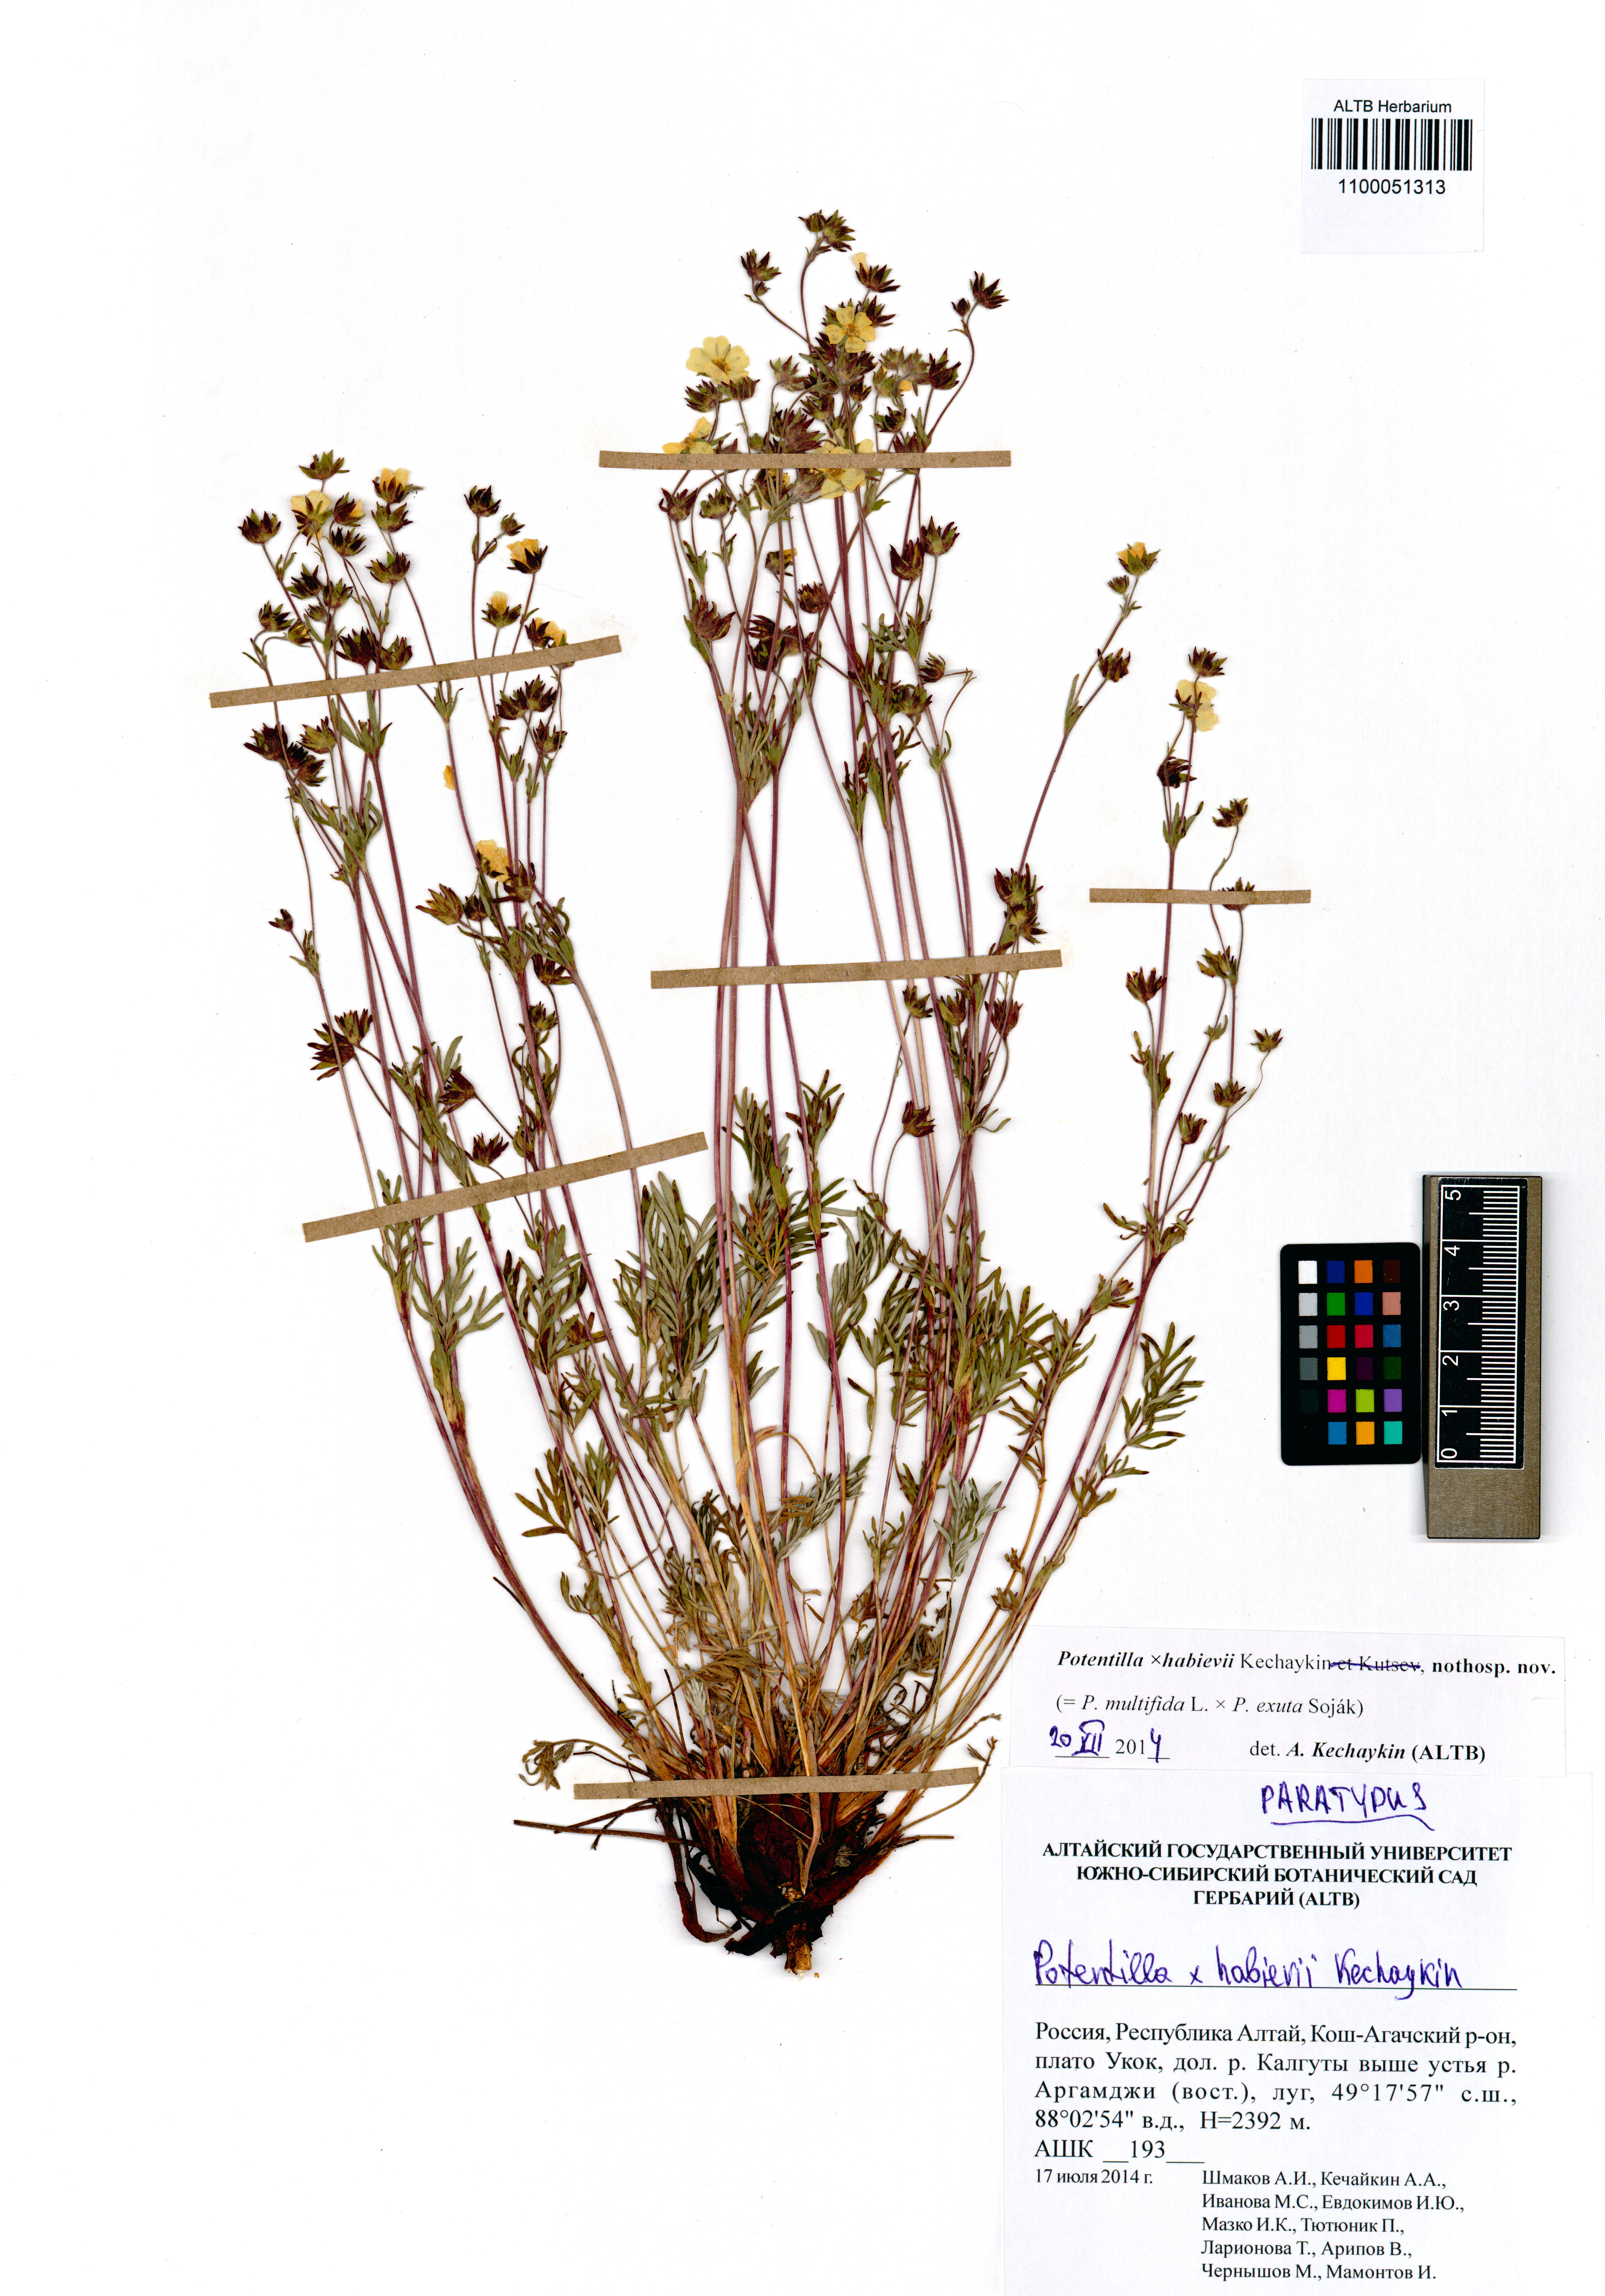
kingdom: Plantae
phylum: Tracheophyta
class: Magnoliopsida
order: Rosales
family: Rosaceae
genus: Potentilla
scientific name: Potentilla habievii
